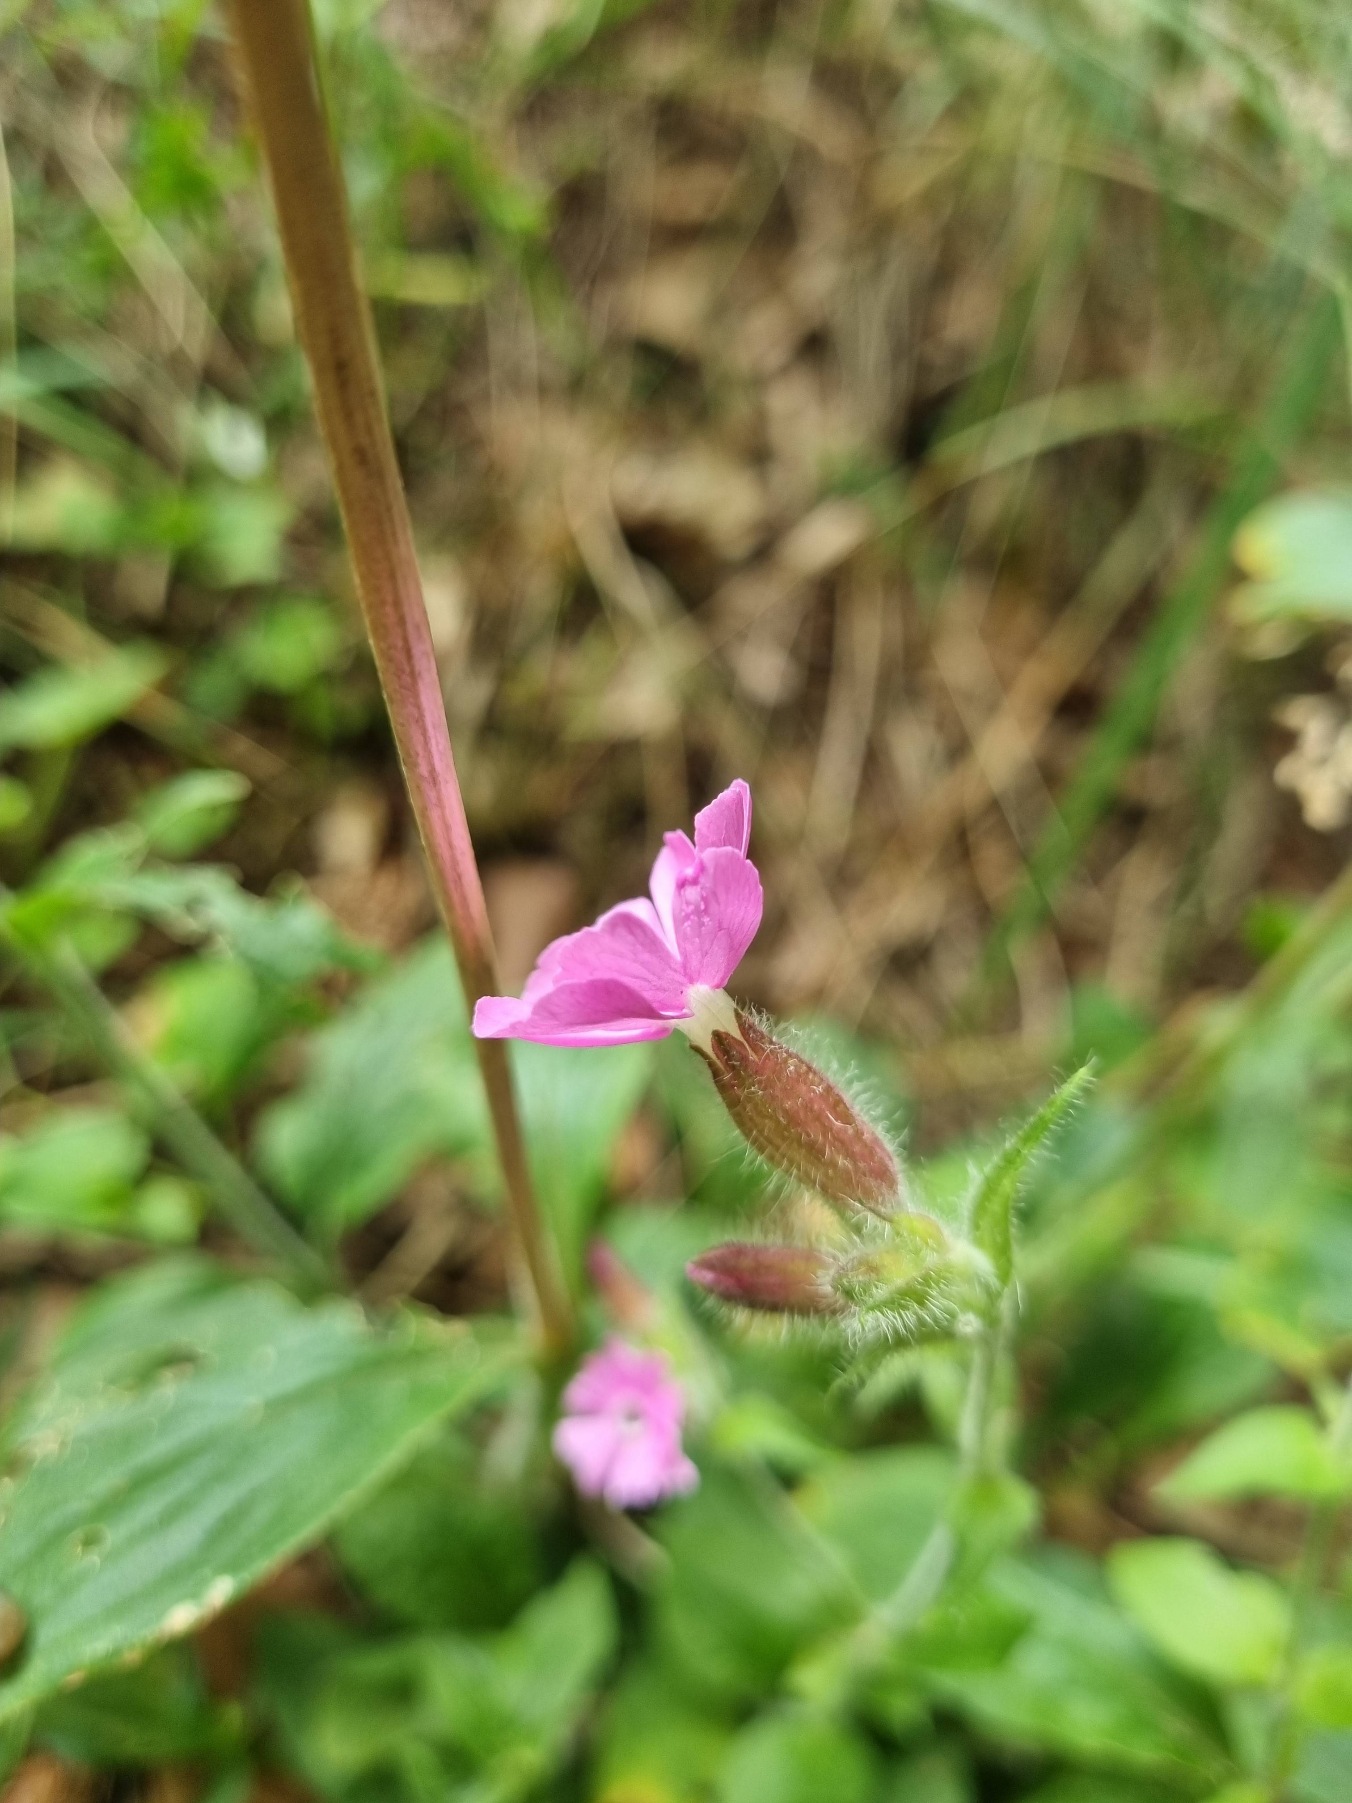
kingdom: Plantae
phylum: Tracheophyta
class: Magnoliopsida
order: Caryophyllales
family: Caryophyllaceae
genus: Silene
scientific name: Silene dioica
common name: Dagpragtstjerne
